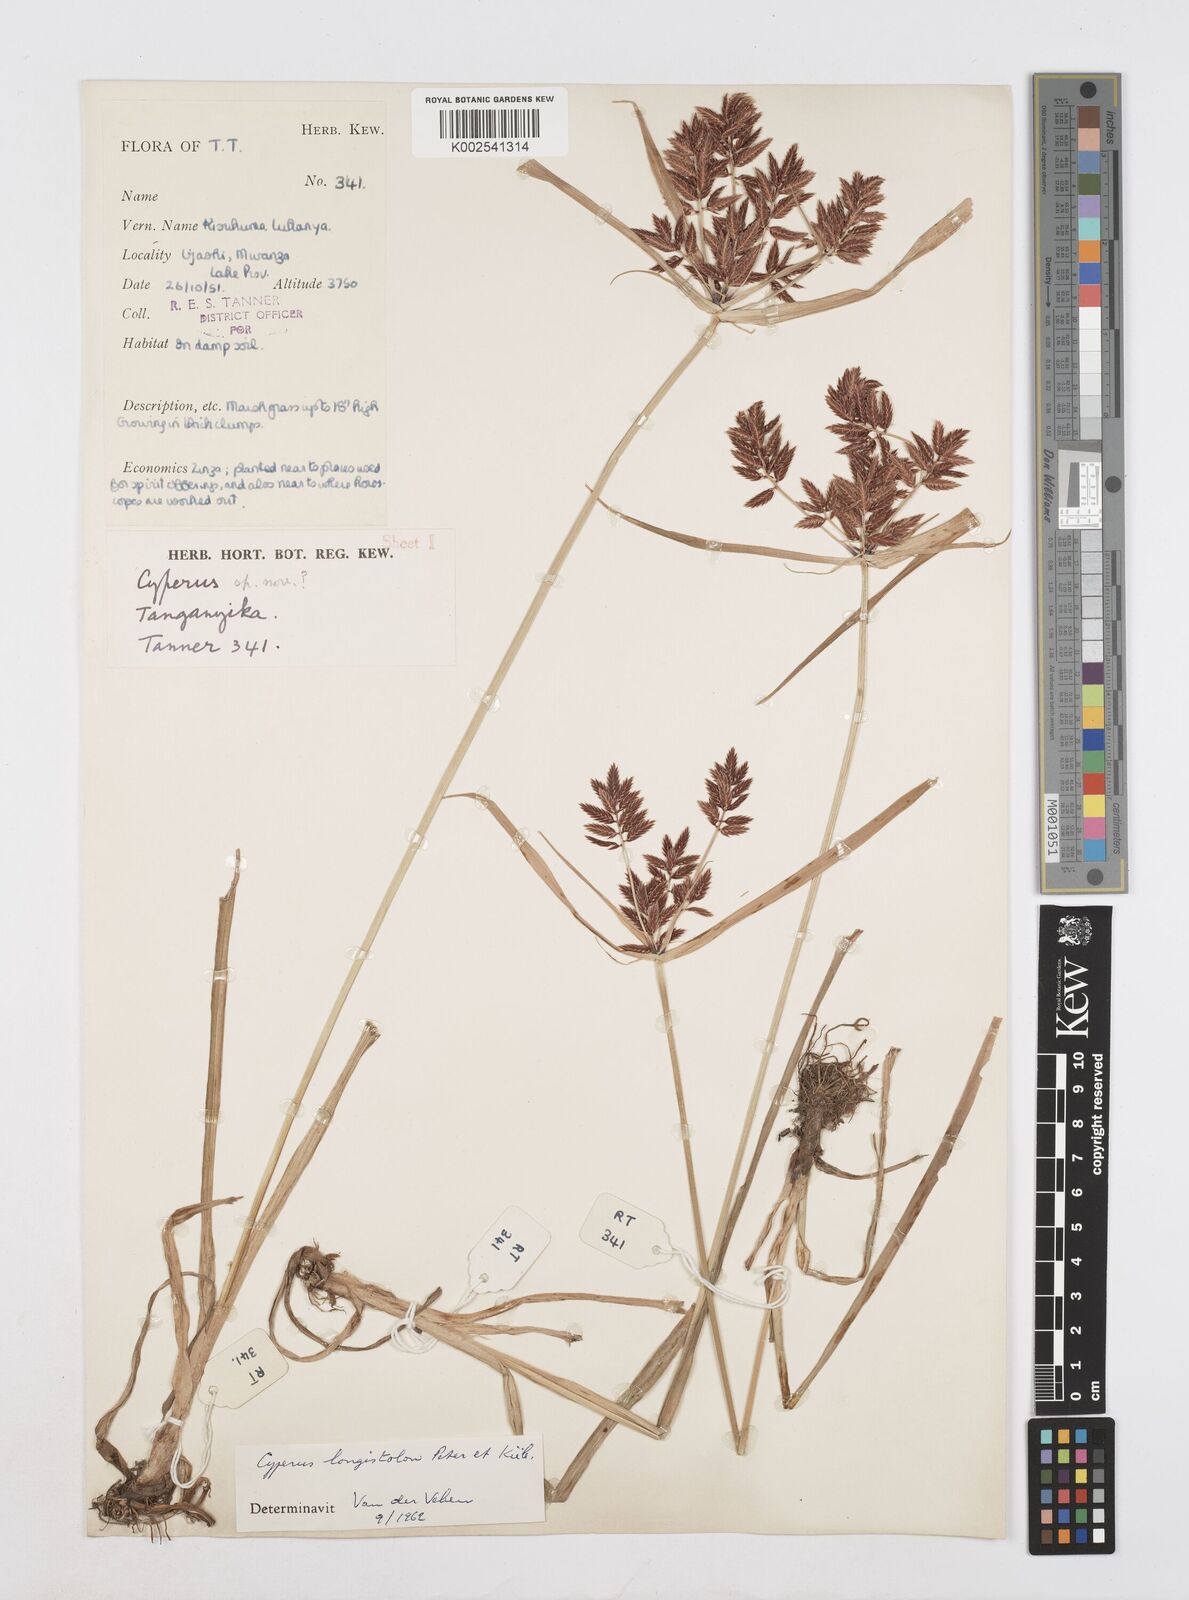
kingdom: Plantae
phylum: Tracheophyta
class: Liliopsida
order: Poales
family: Cyperaceae
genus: Cyperus
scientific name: Cyperus chrysanthus
